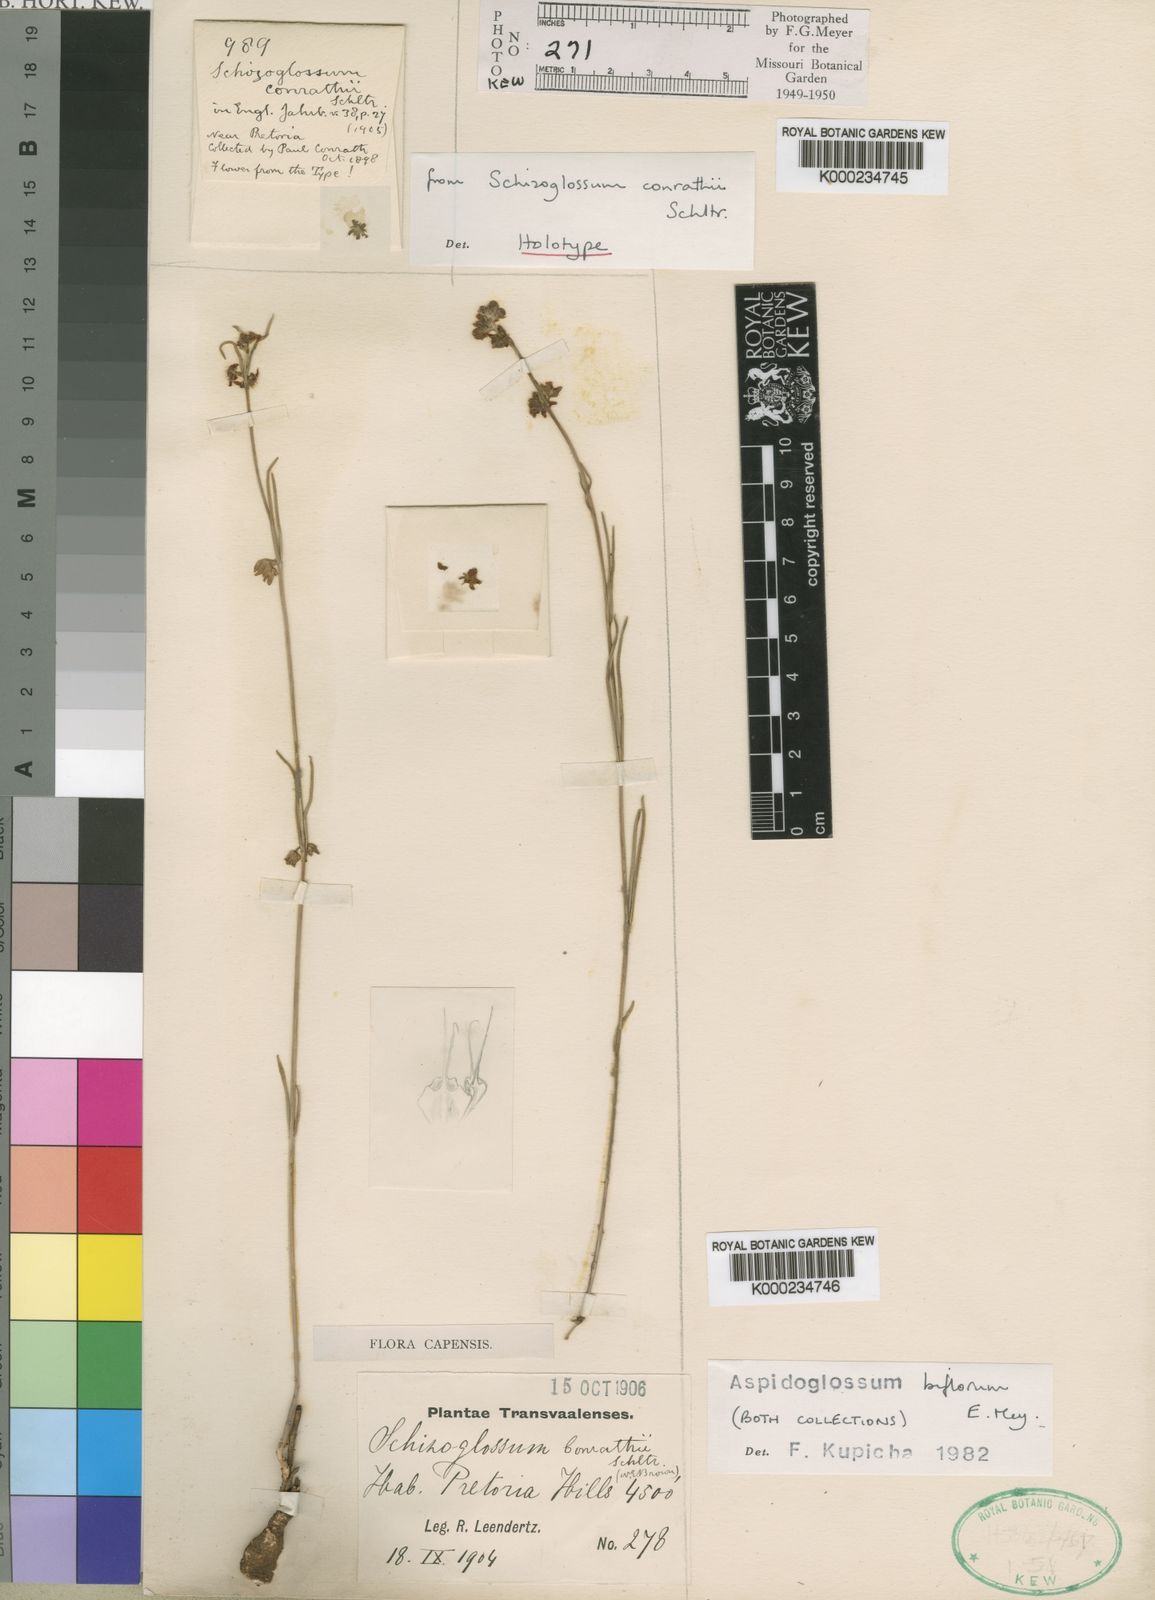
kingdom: Plantae
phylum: Tracheophyta
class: Magnoliopsida
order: Gentianales
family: Apocynaceae
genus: Aspidoglossum
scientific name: Aspidoglossum biflorum
